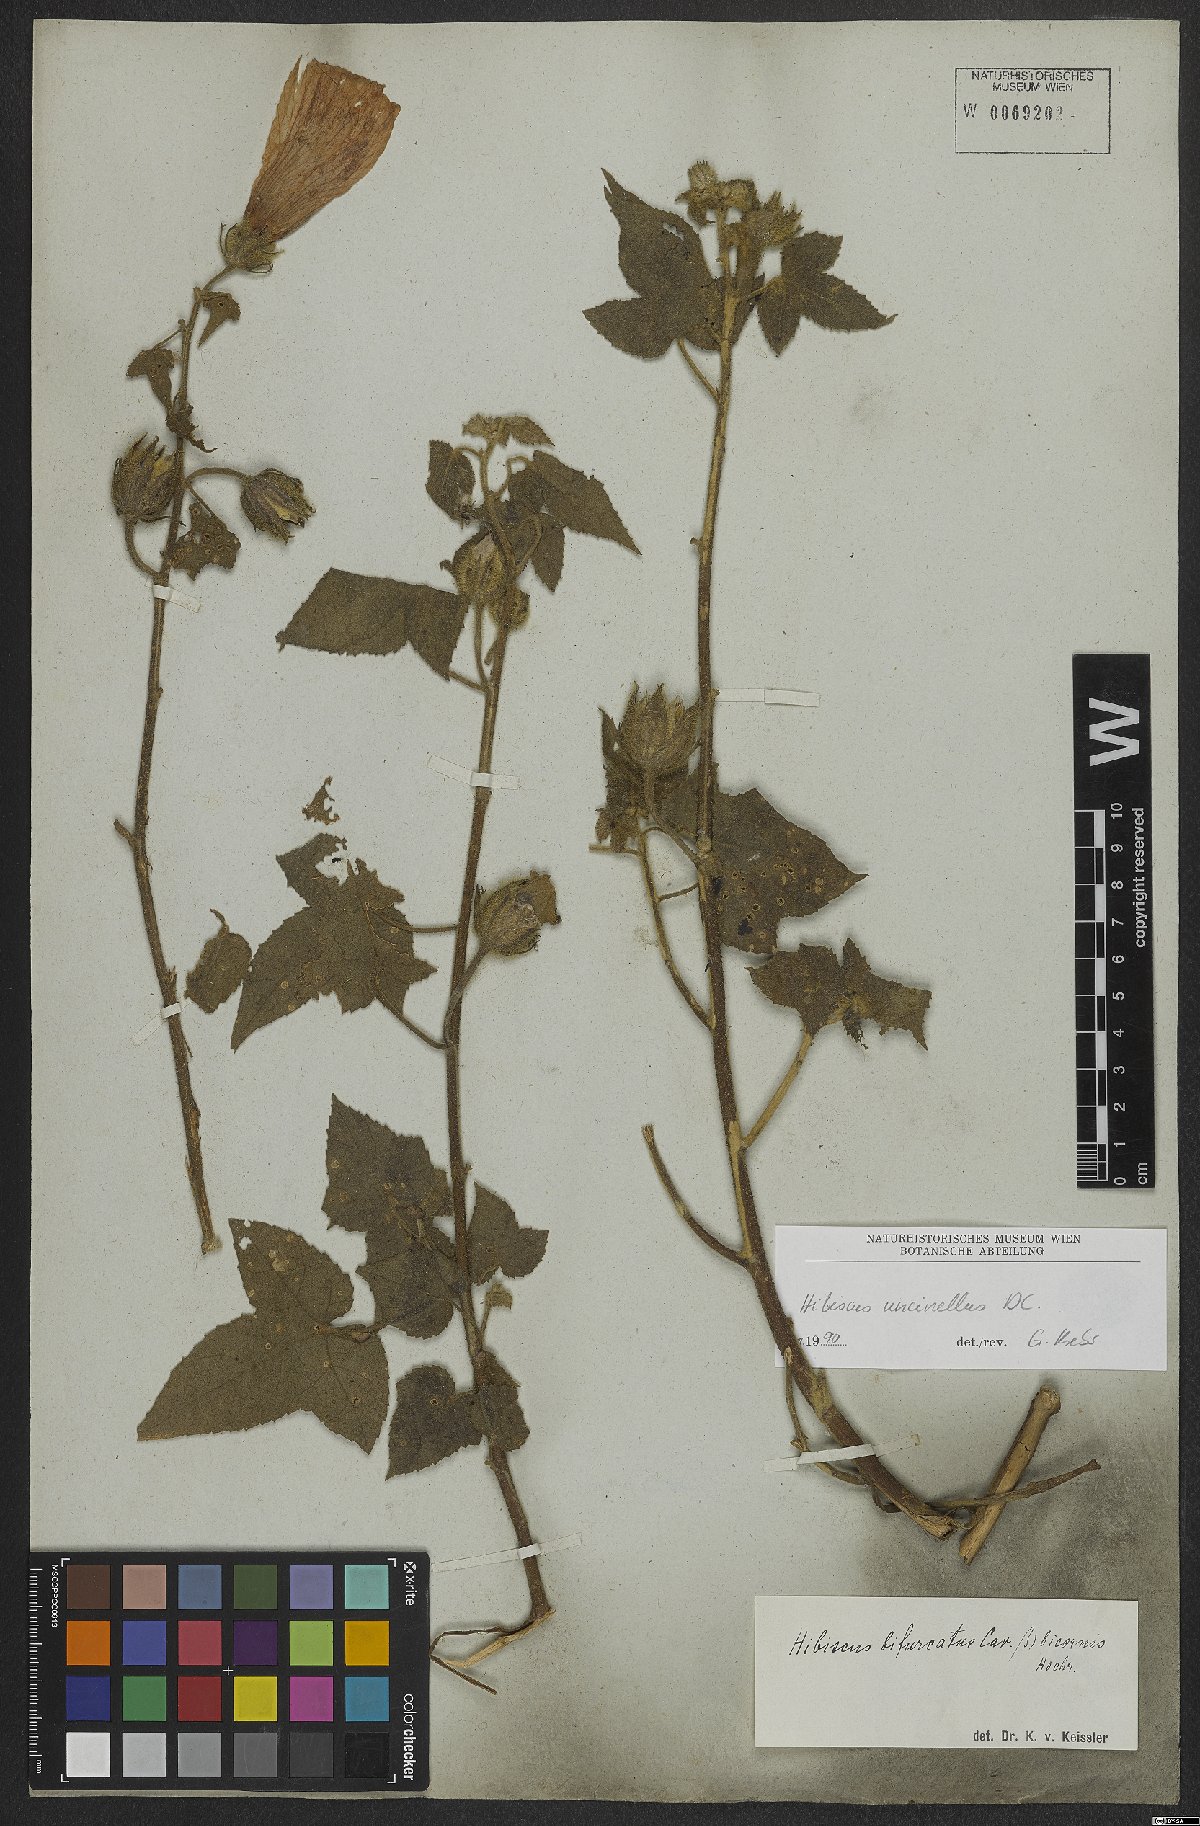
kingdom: Plantae
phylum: Tracheophyta
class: Magnoliopsida
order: Malvales
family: Malvaceae
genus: Hibiscus
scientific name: Hibiscus uncinellus
